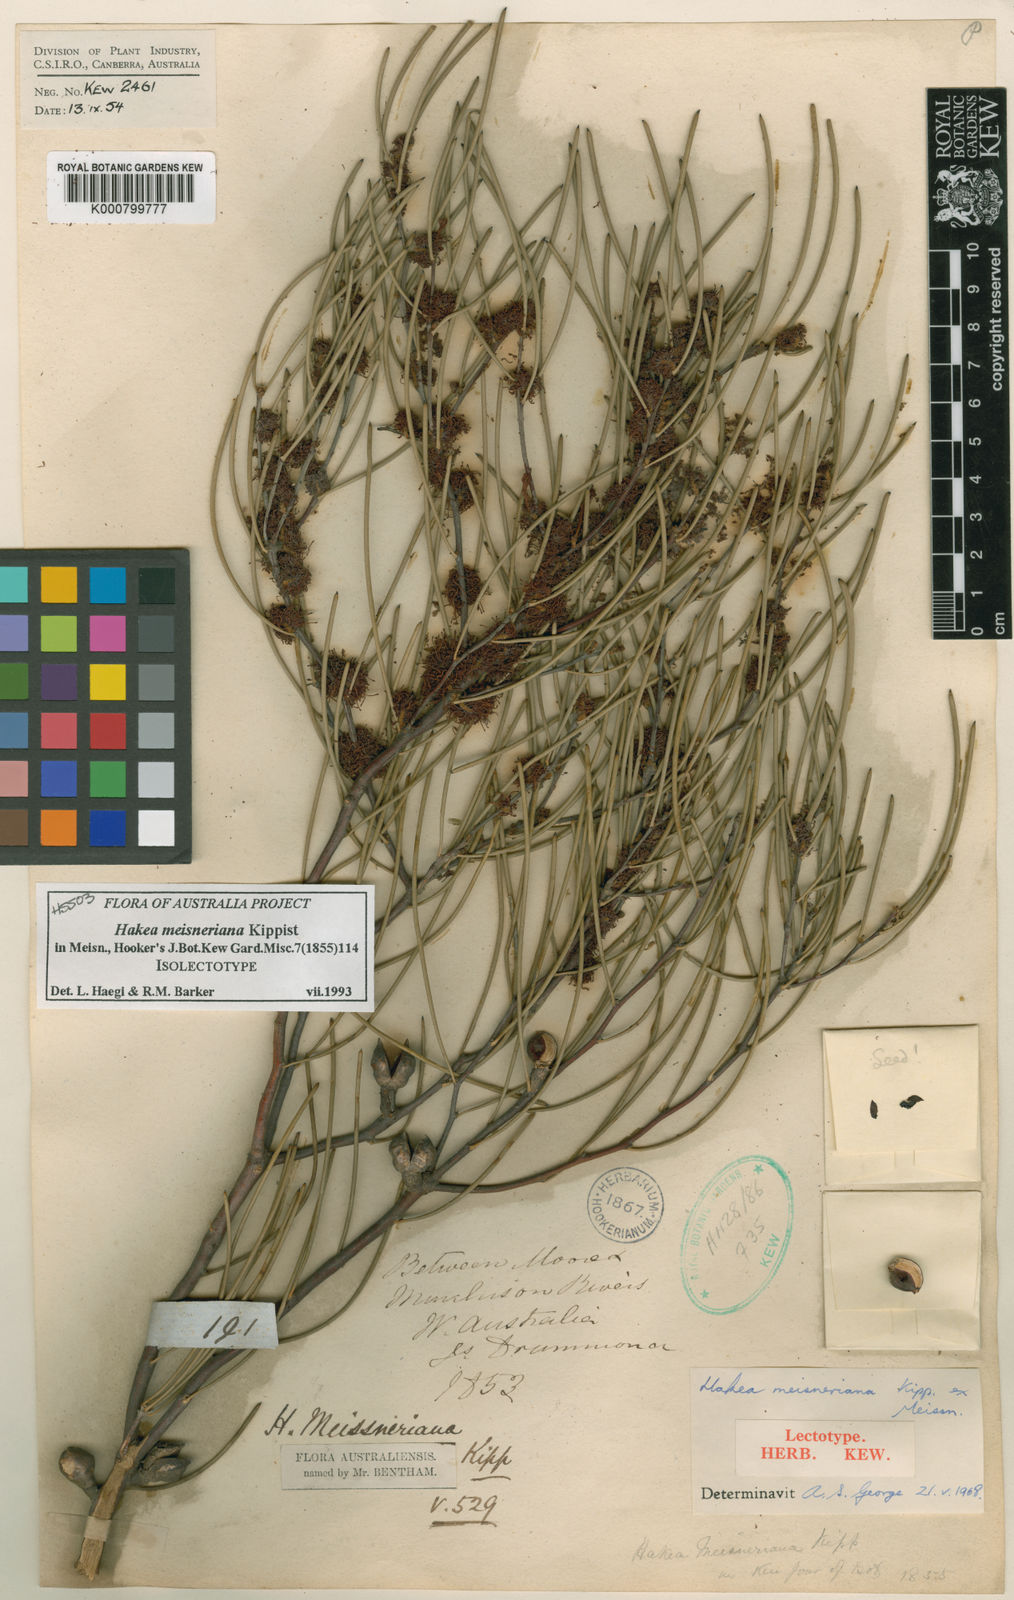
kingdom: Plantae
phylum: Tracheophyta
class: Magnoliopsida
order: Proteales
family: Proteaceae
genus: Hakea
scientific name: Hakea
